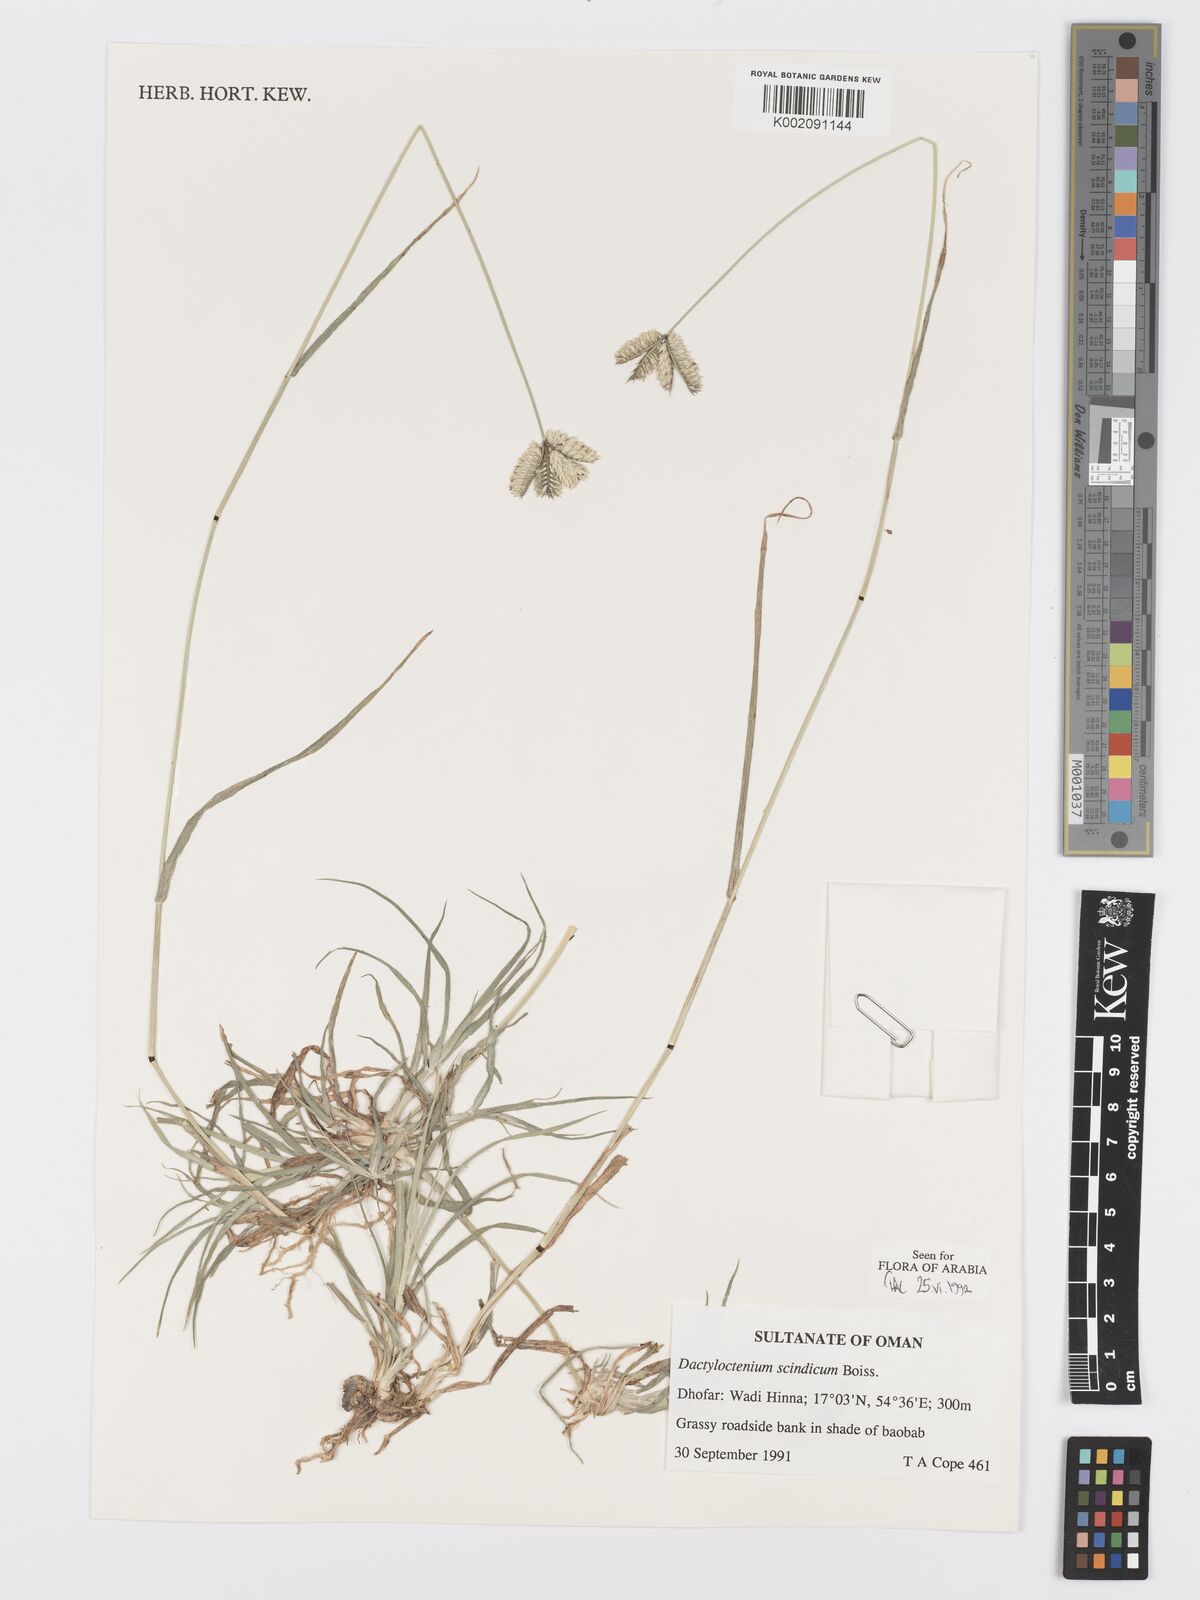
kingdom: Plantae
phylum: Tracheophyta
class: Liliopsida
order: Poales
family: Poaceae
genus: Dactyloctenium
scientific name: Dactyloctenium scindicum
